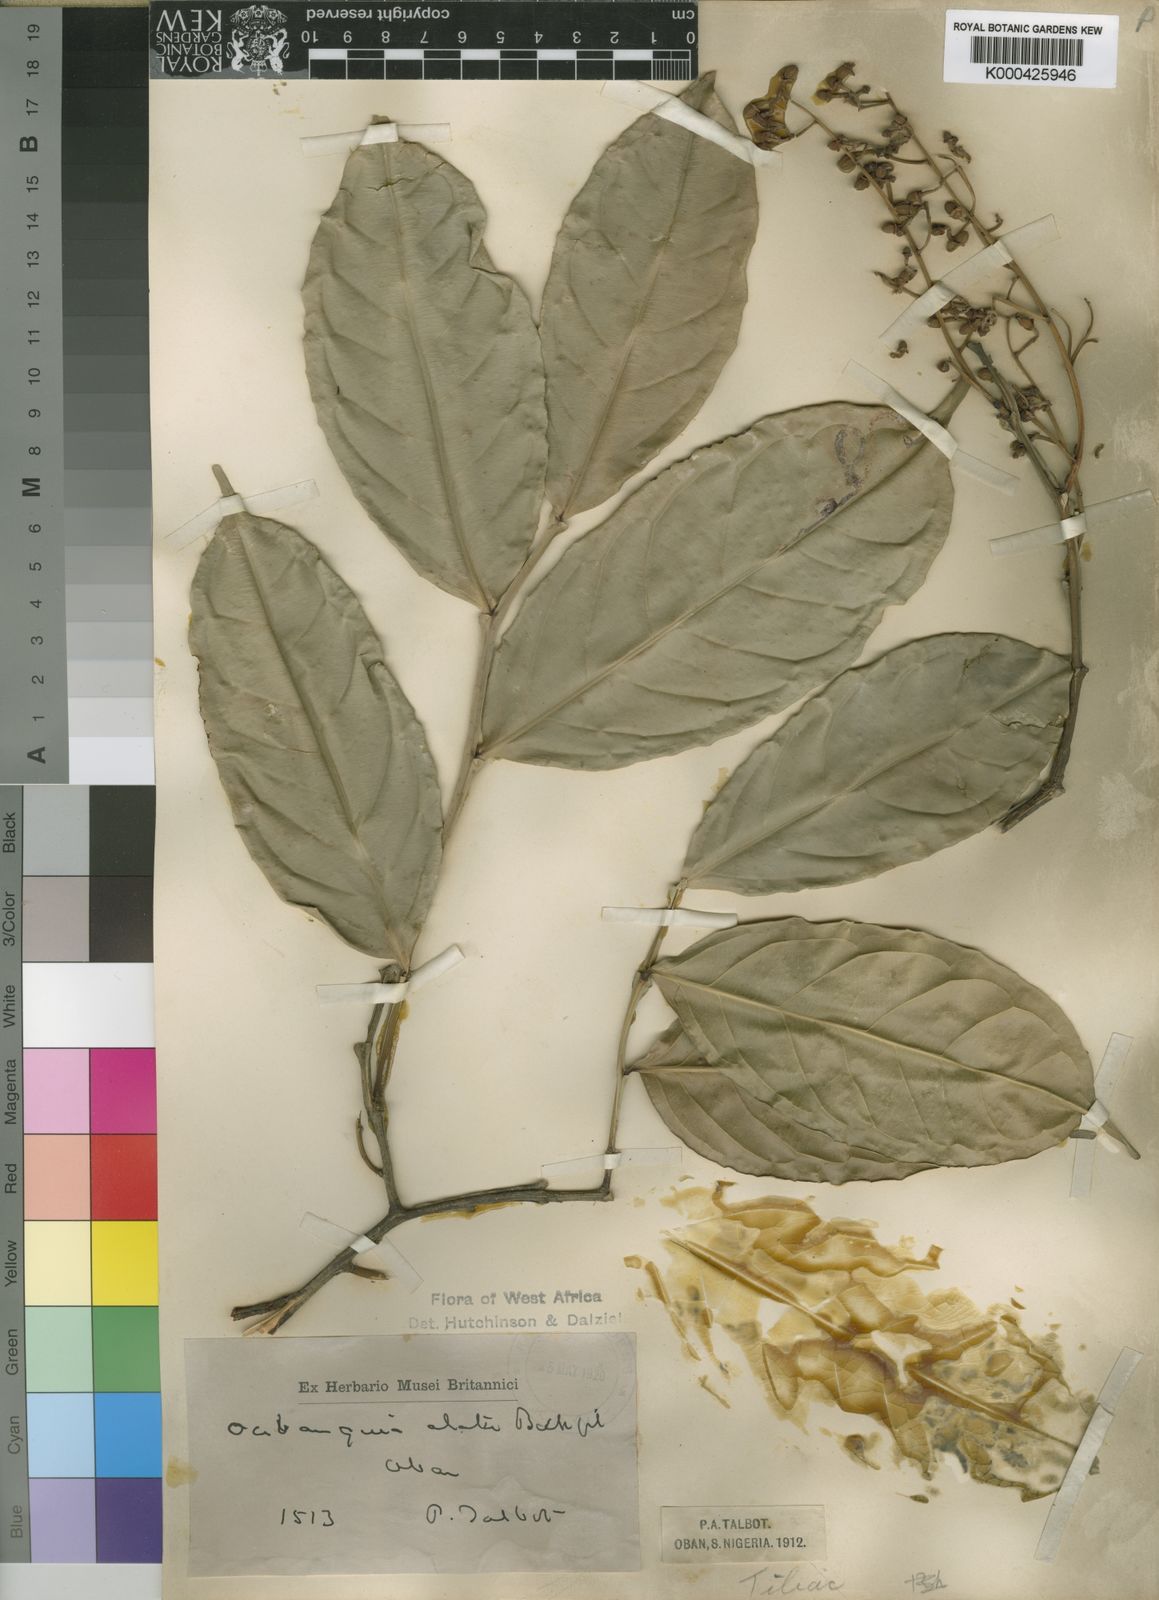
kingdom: Plantae
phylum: Tracheophyta
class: Magnoliopsida
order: Ericales
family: Lecythidaceae
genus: Oubanguia
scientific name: Oubanguia alata
